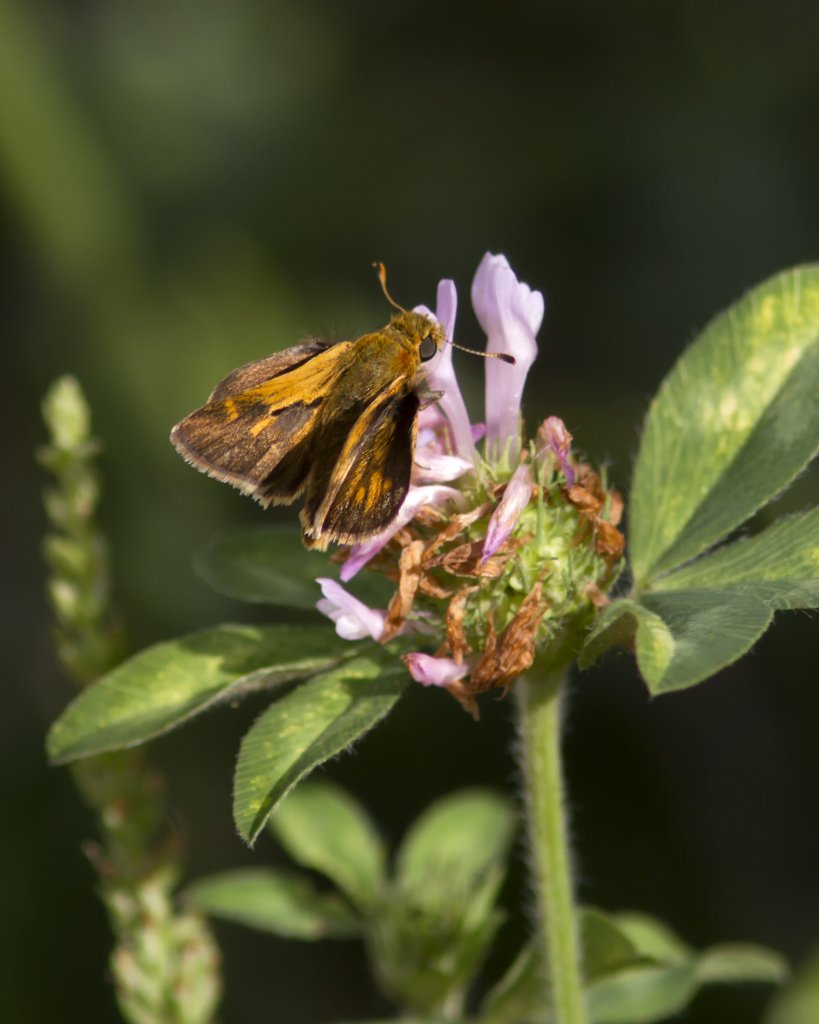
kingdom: Animalia
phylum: Arthropoda
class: Insecta
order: Lepidoptera
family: Hesperiidae
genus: Polites
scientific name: Polites themistocles
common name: Tawny-edged Skipper
